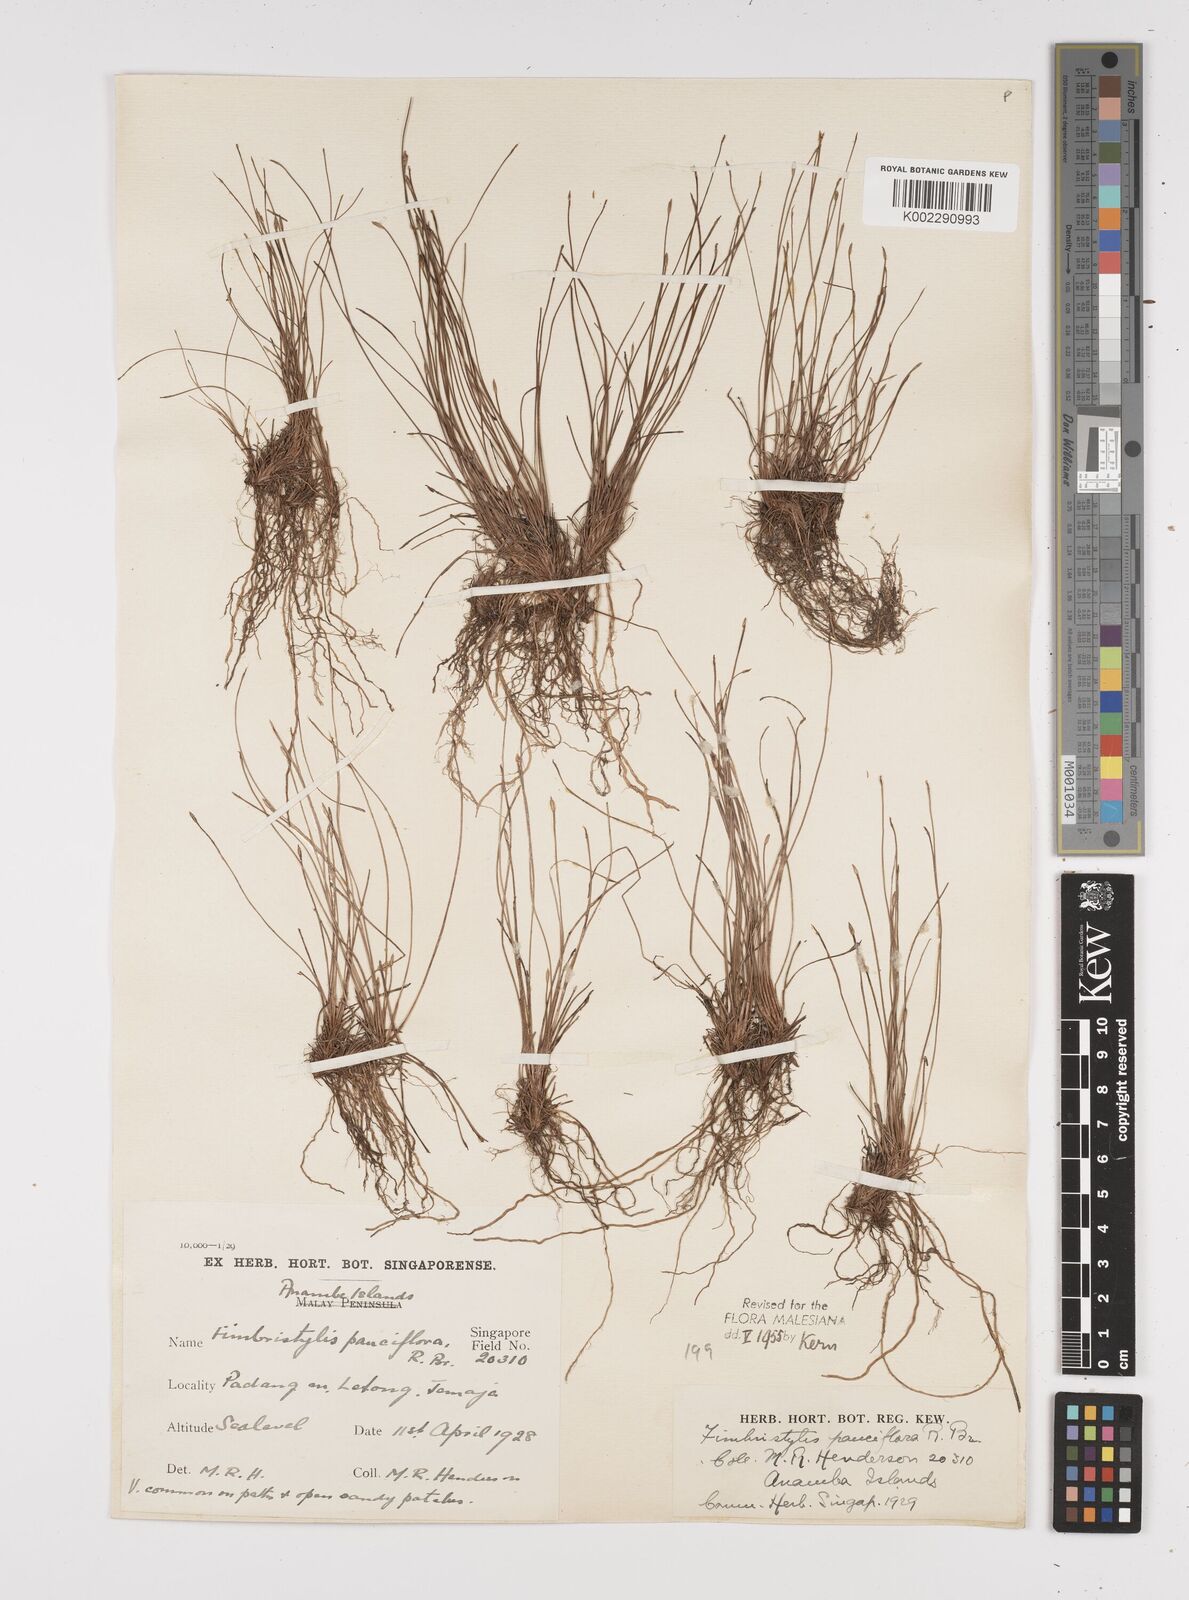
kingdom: Plantae
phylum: Tracheophyta
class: Liliopsida
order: Poales
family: Cyperaceae
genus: Fimbristylis
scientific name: Fimbristylis pauciflora
